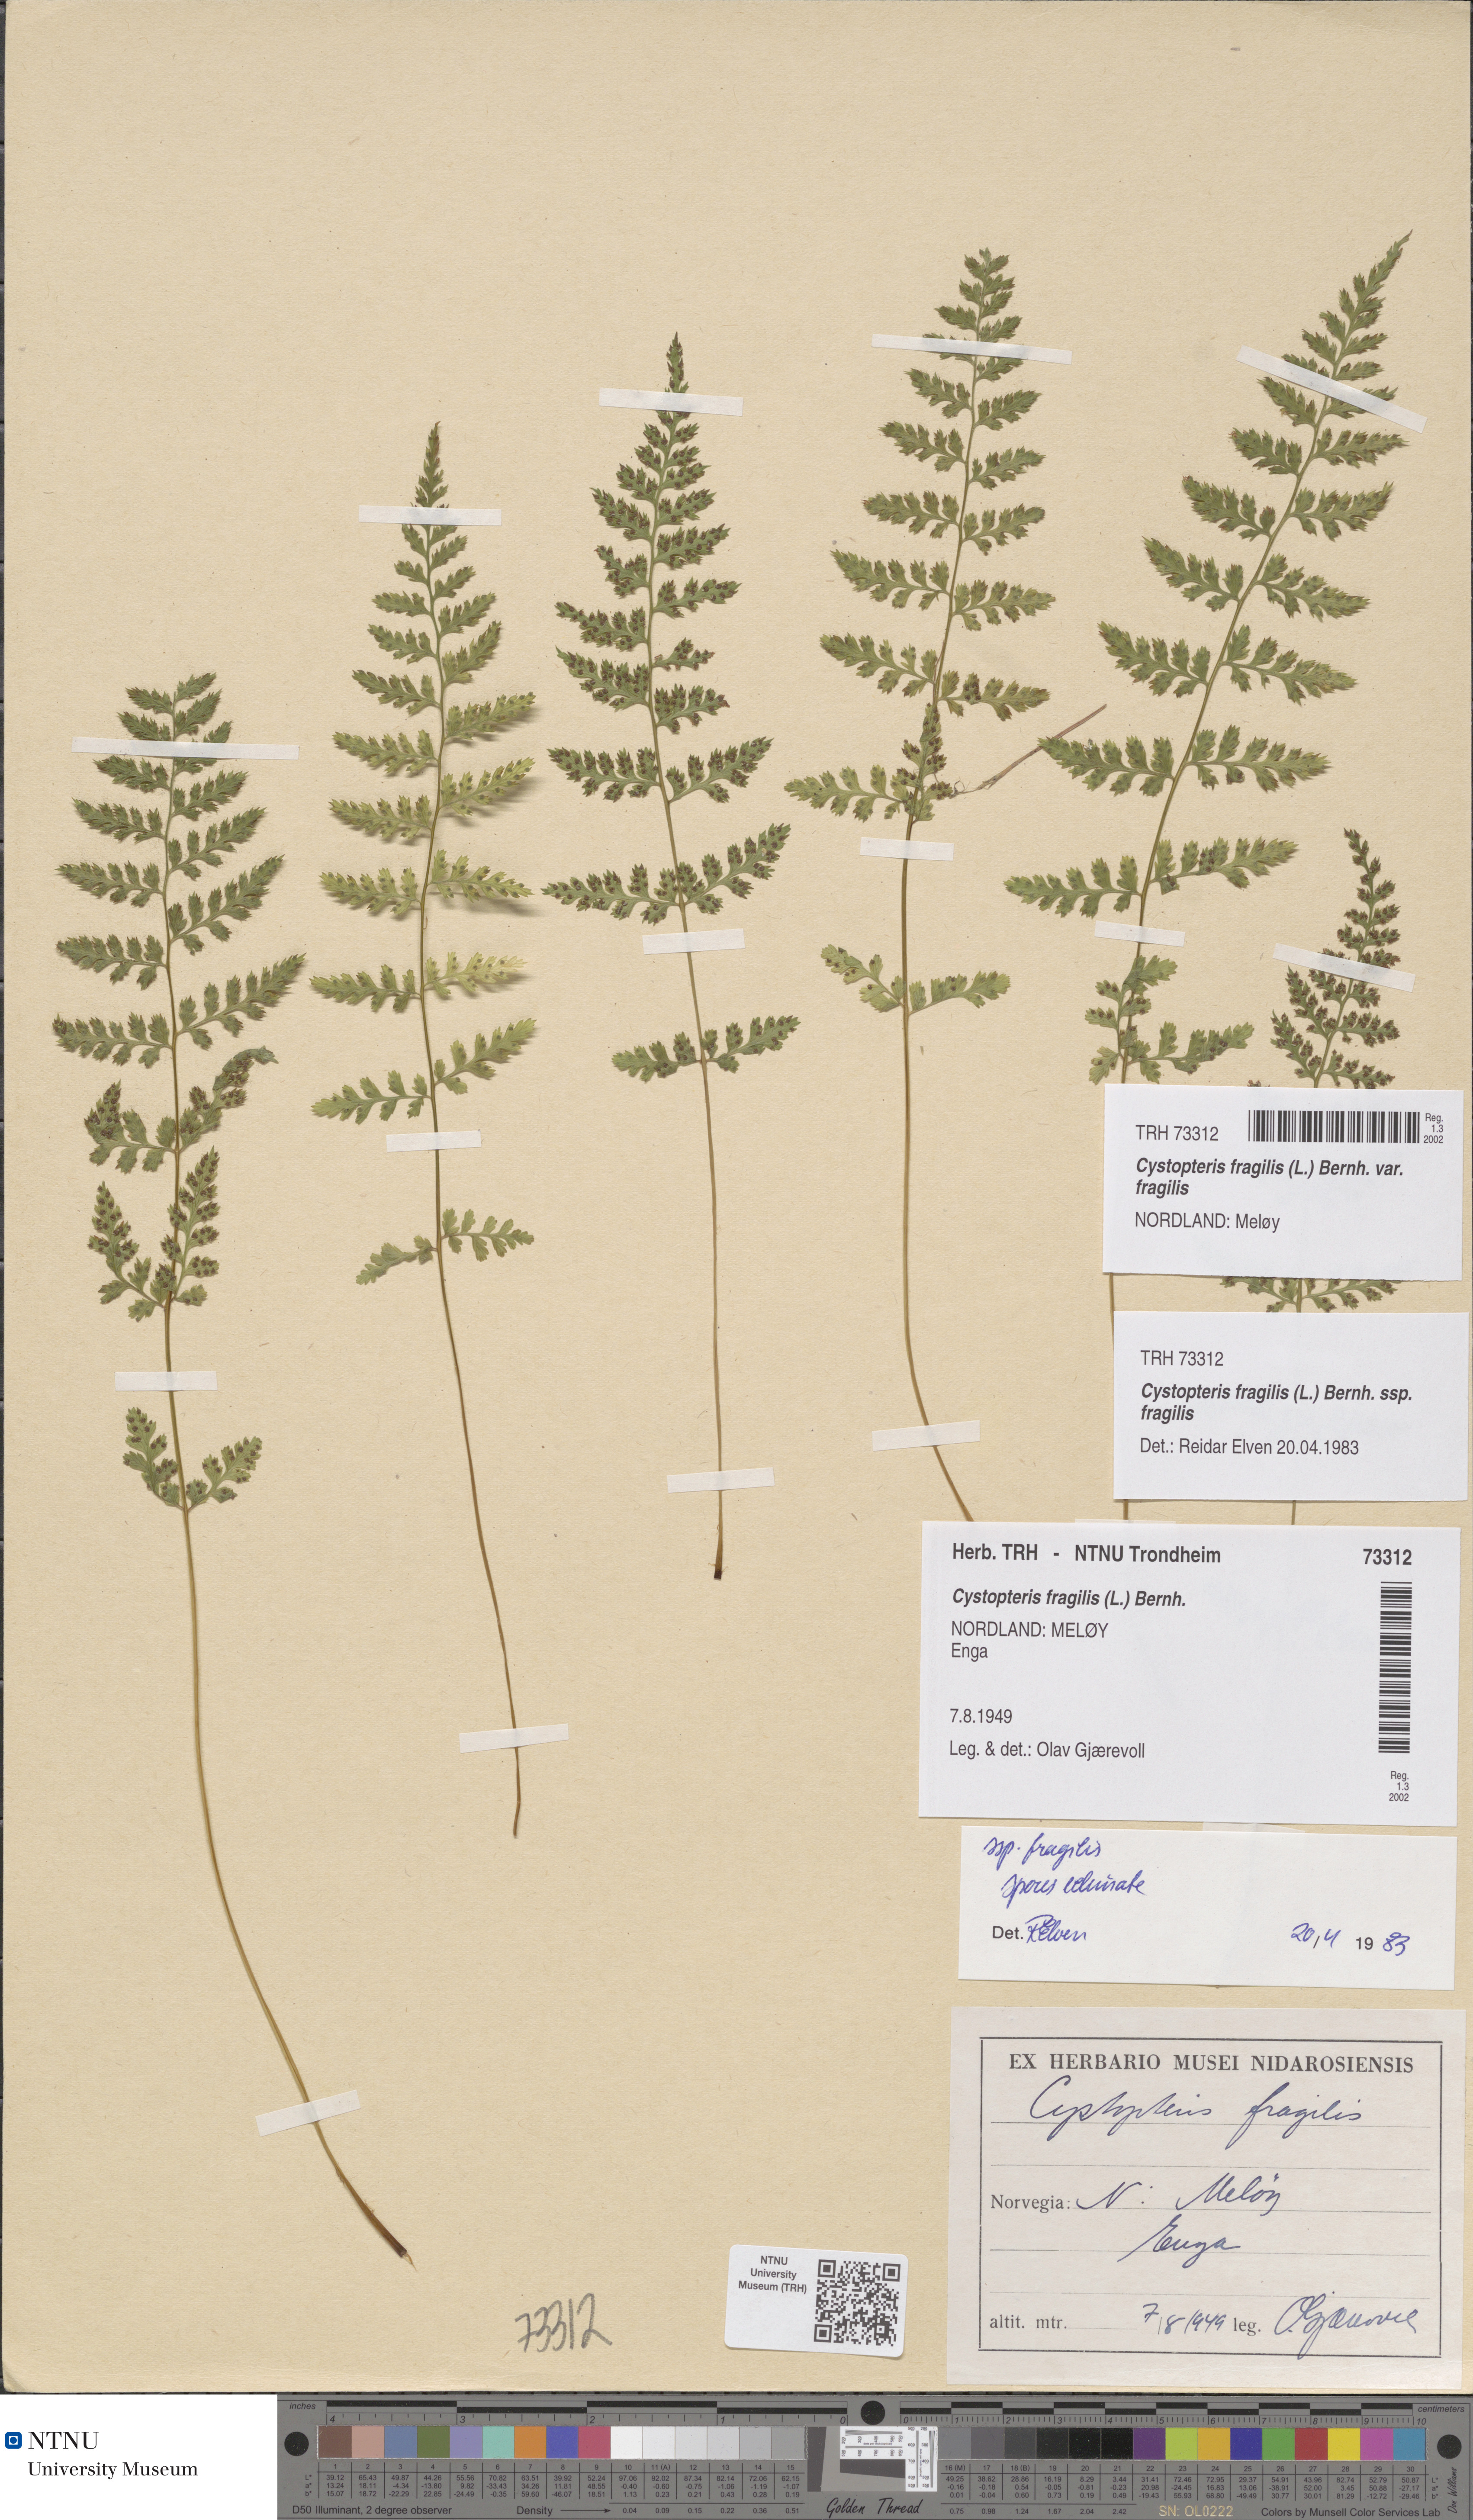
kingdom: Plantae
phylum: Tracheophyta
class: Polypodiopsida
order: Polypodiales
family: Cystopteridaceae
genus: Cystopteris
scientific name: Cystopteris fragilis
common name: Brittle bladder fern
